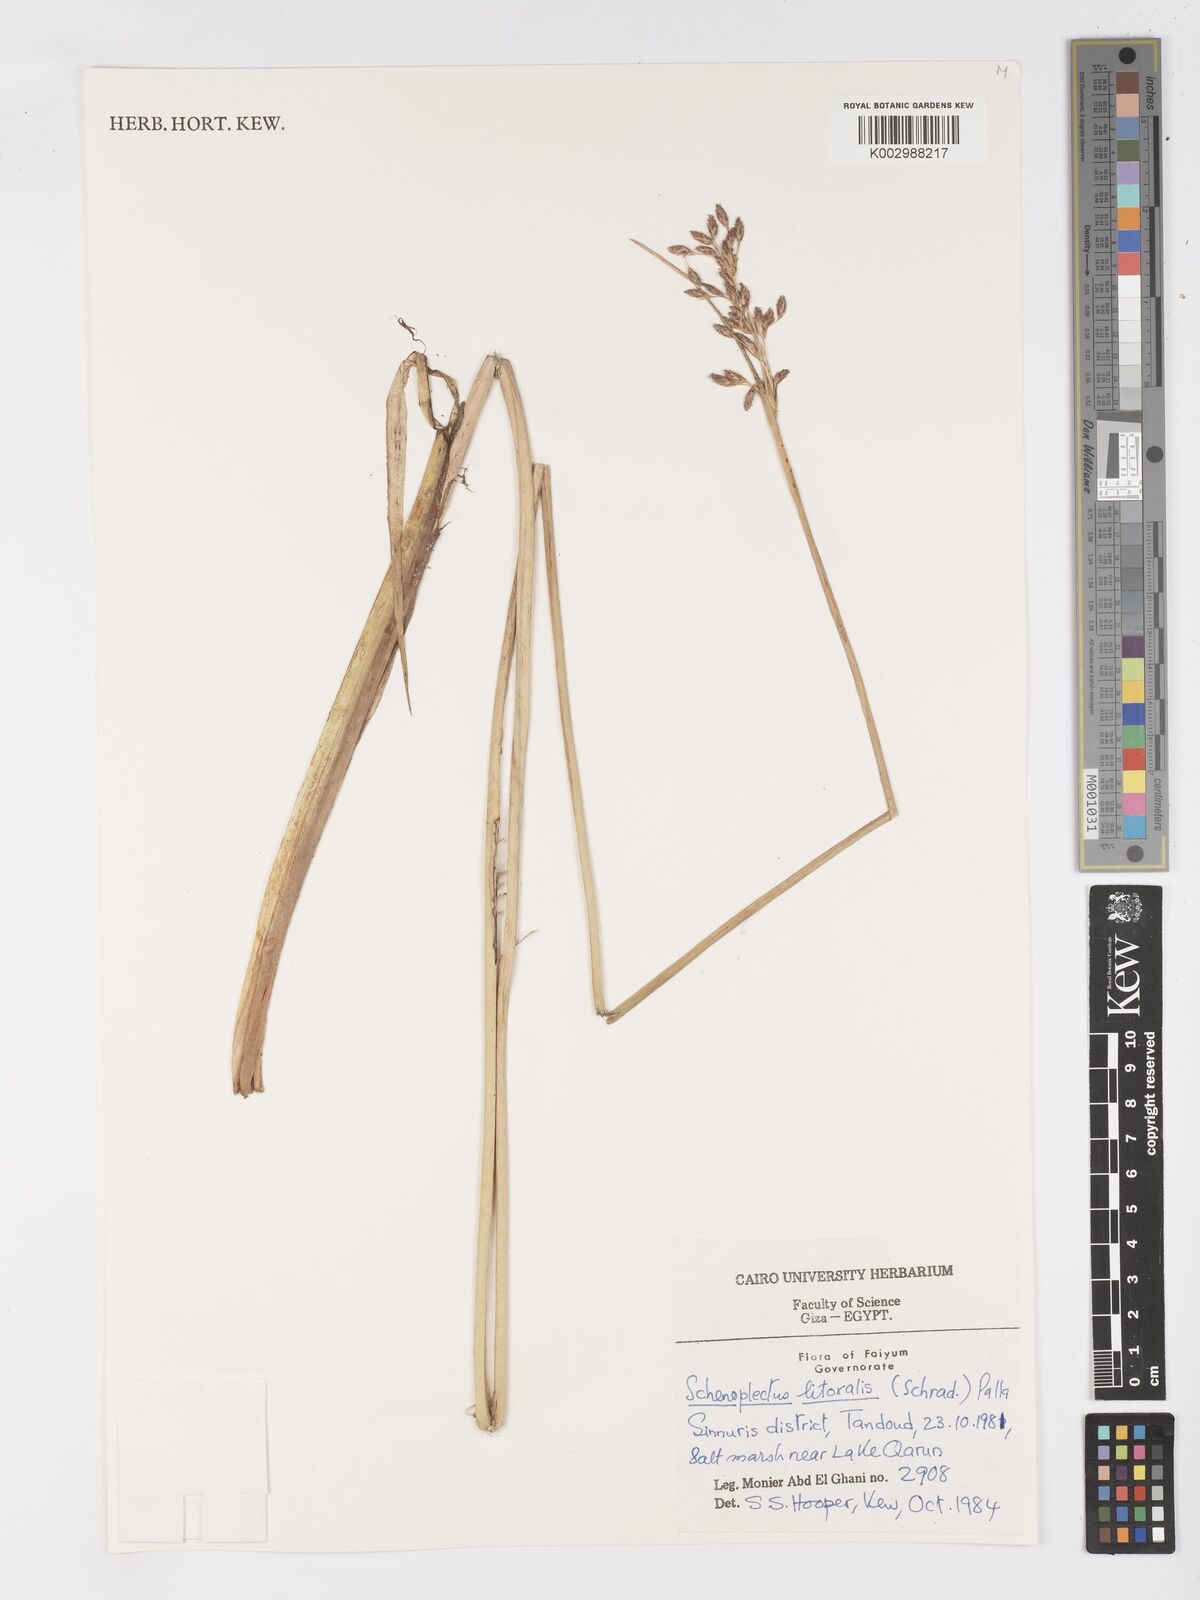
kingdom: Plantae
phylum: Tracheophyta
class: Liliopsida
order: Poales
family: Cyperaceae
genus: Schoenoplectus
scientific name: Schoenoplectus litoralis
